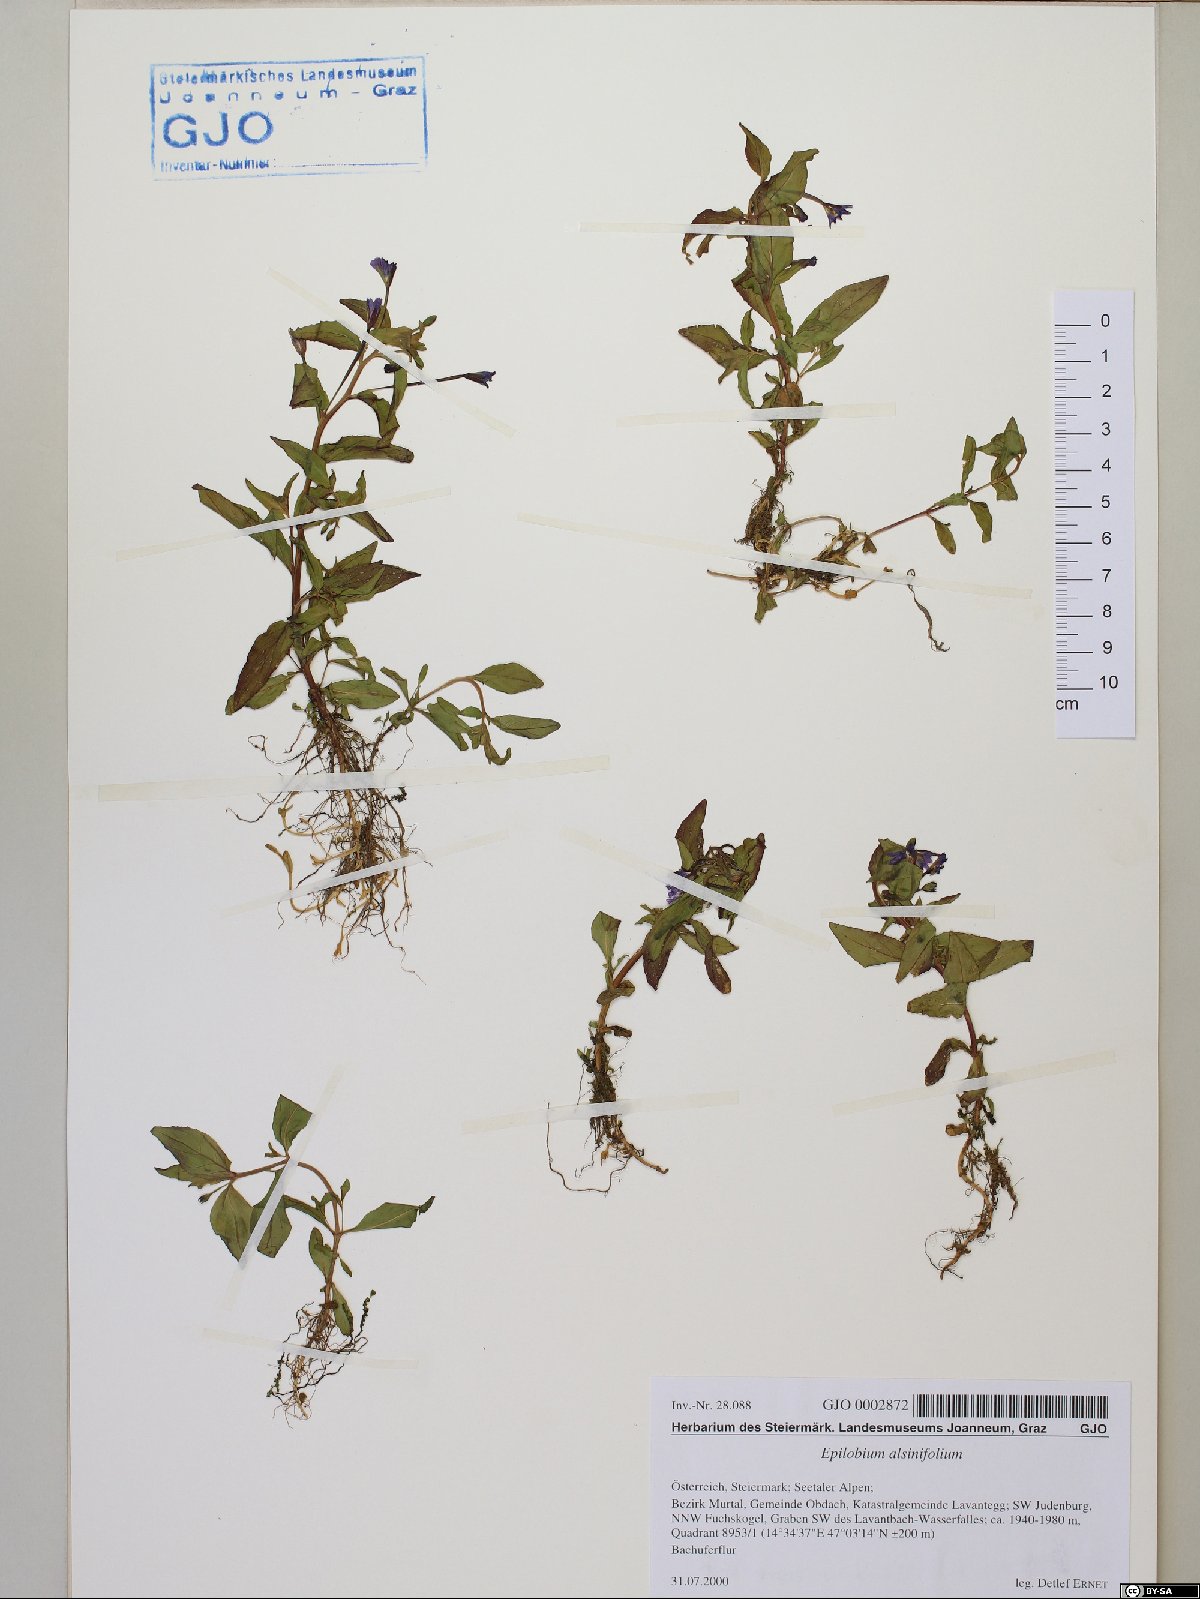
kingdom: Plantae
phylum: Tracheophyta
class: Magnoliopsida
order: Myrtales
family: Onagraceae
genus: Epilobium
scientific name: Epilobium alsinifolium
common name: Chickweed willowherb
